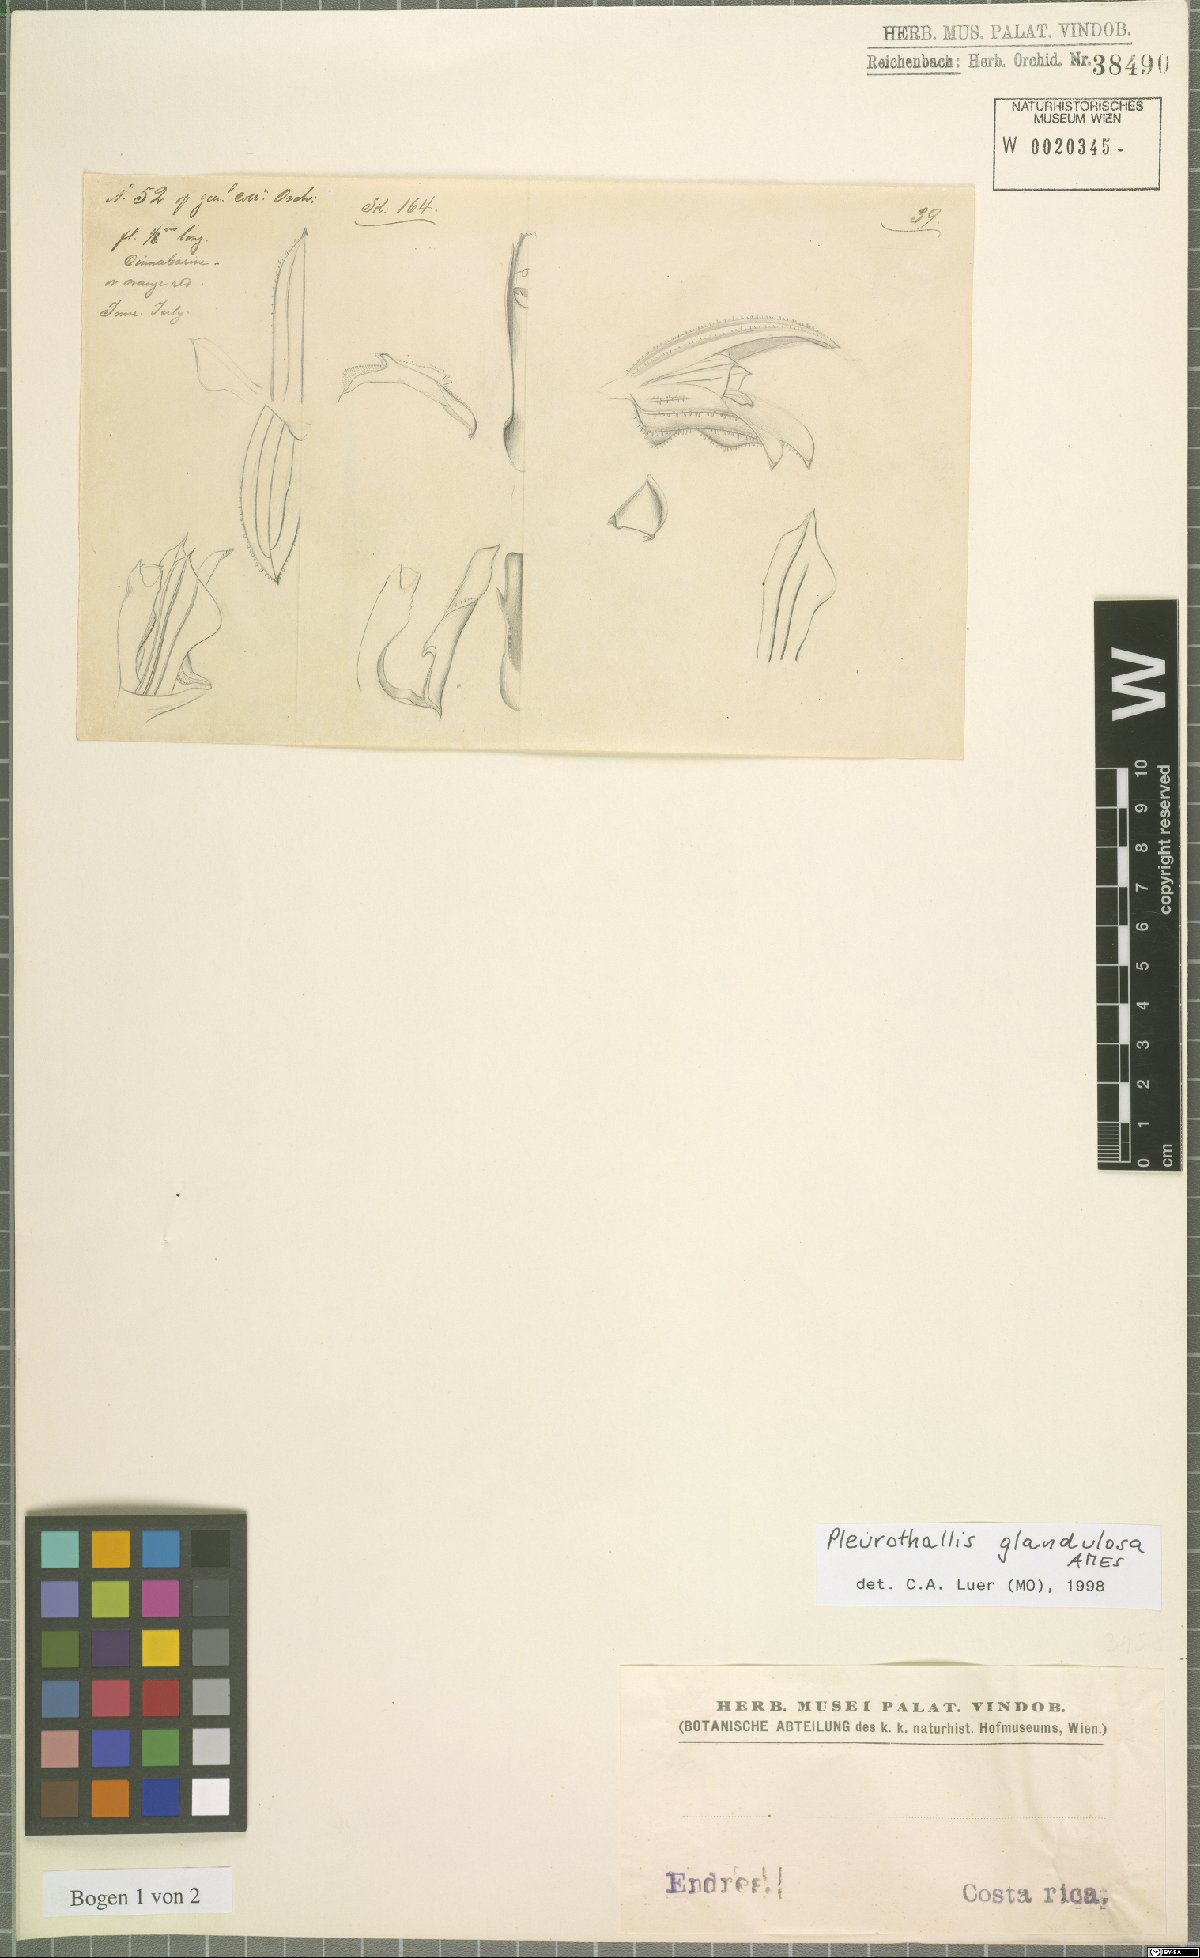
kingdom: Plantae
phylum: Tracheophyta
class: Liliopsida
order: Asparagales
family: Orchidaceae
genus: Specklinia
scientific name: Specklinia glandulosa
